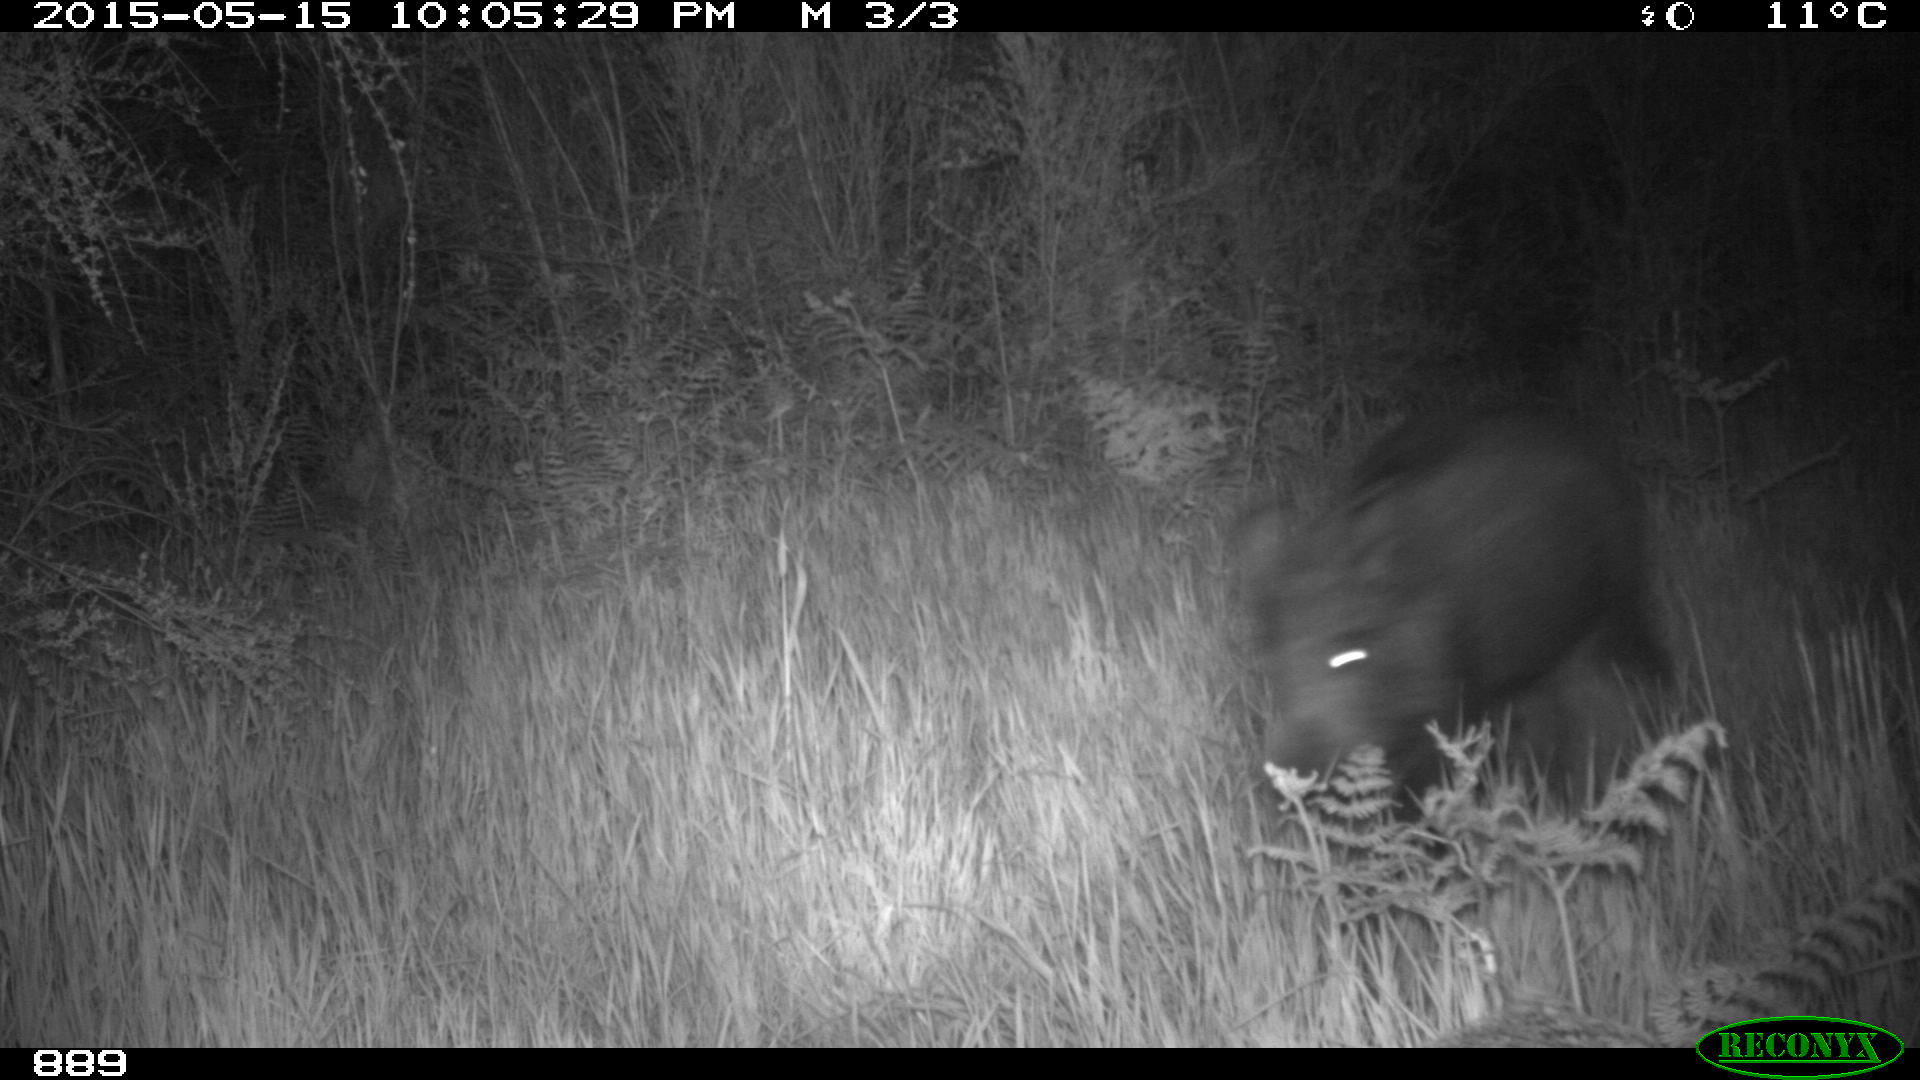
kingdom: Animalia
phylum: Chordata
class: Mammalia
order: Artiodactyla
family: Suidae
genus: Sus
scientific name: Sus scrofa
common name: Wild boar
